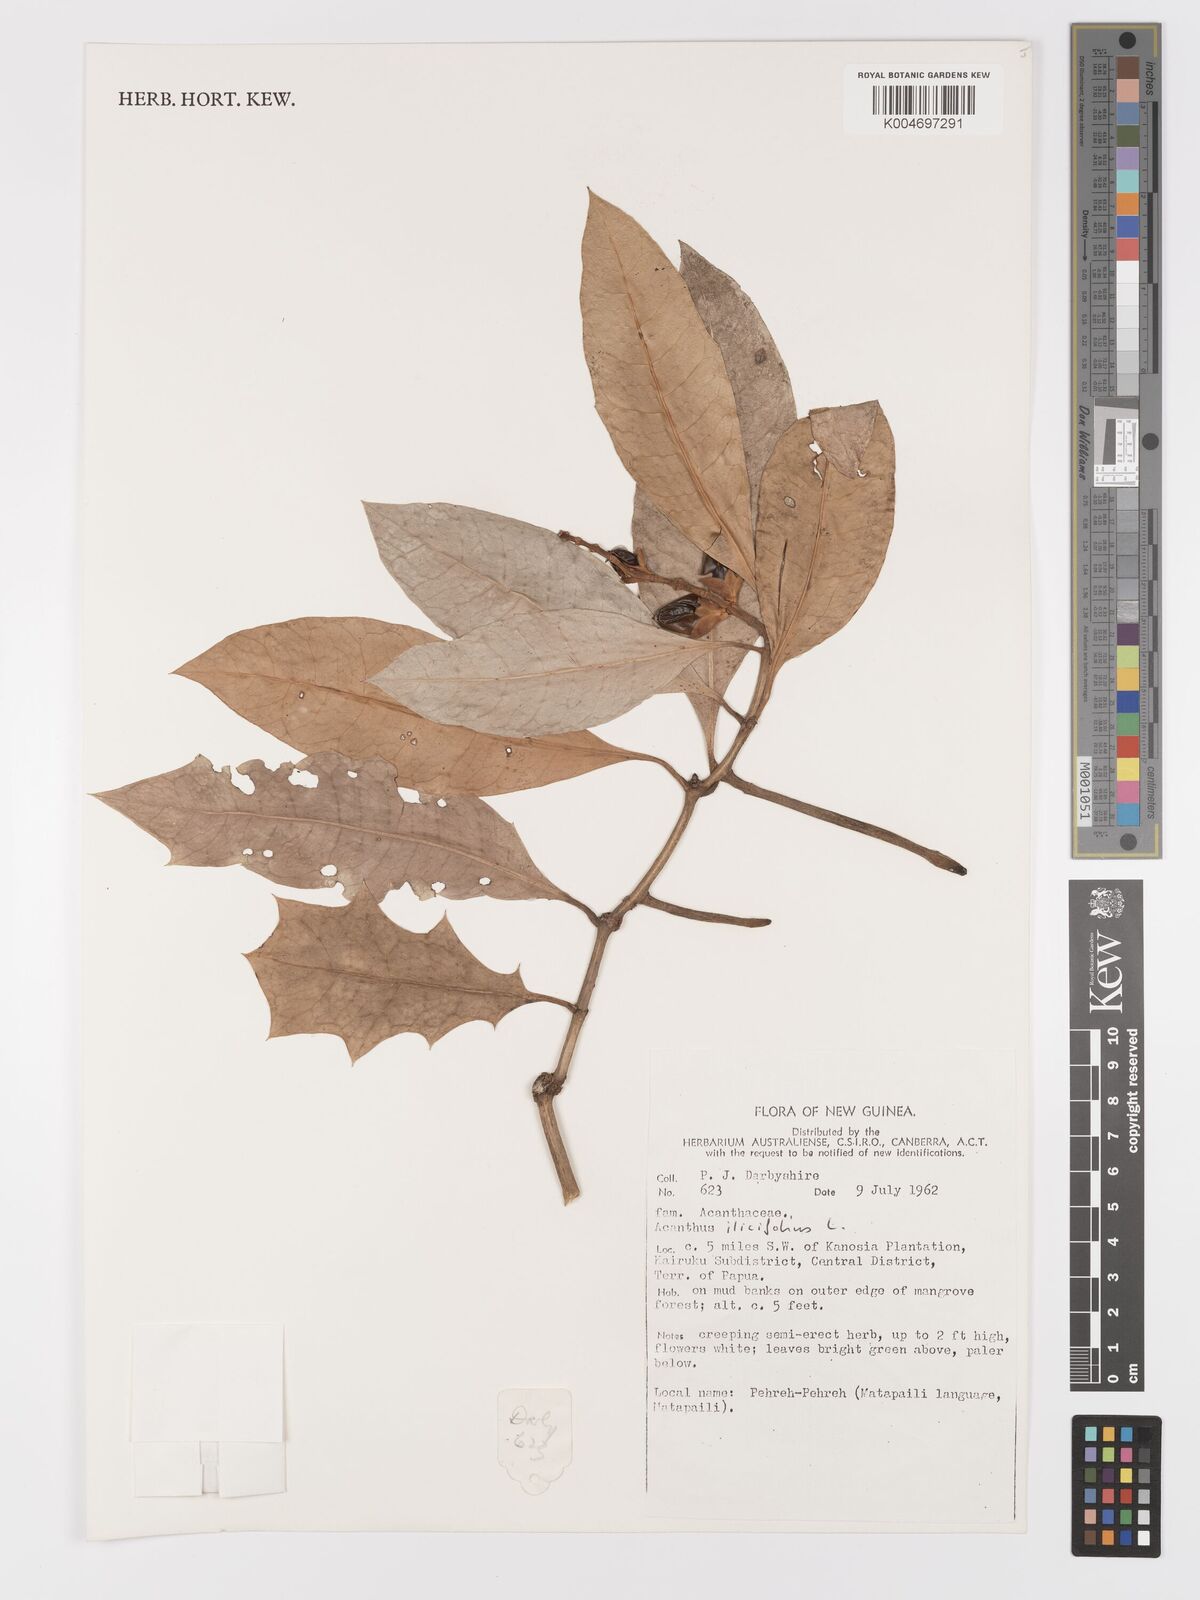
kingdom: Plantae
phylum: Tracheophyta
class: Magnoliopsida
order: Lamiales
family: Acanthaceae
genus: Acanthus
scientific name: Acanthus ilicifolius
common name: Holy mangrove
